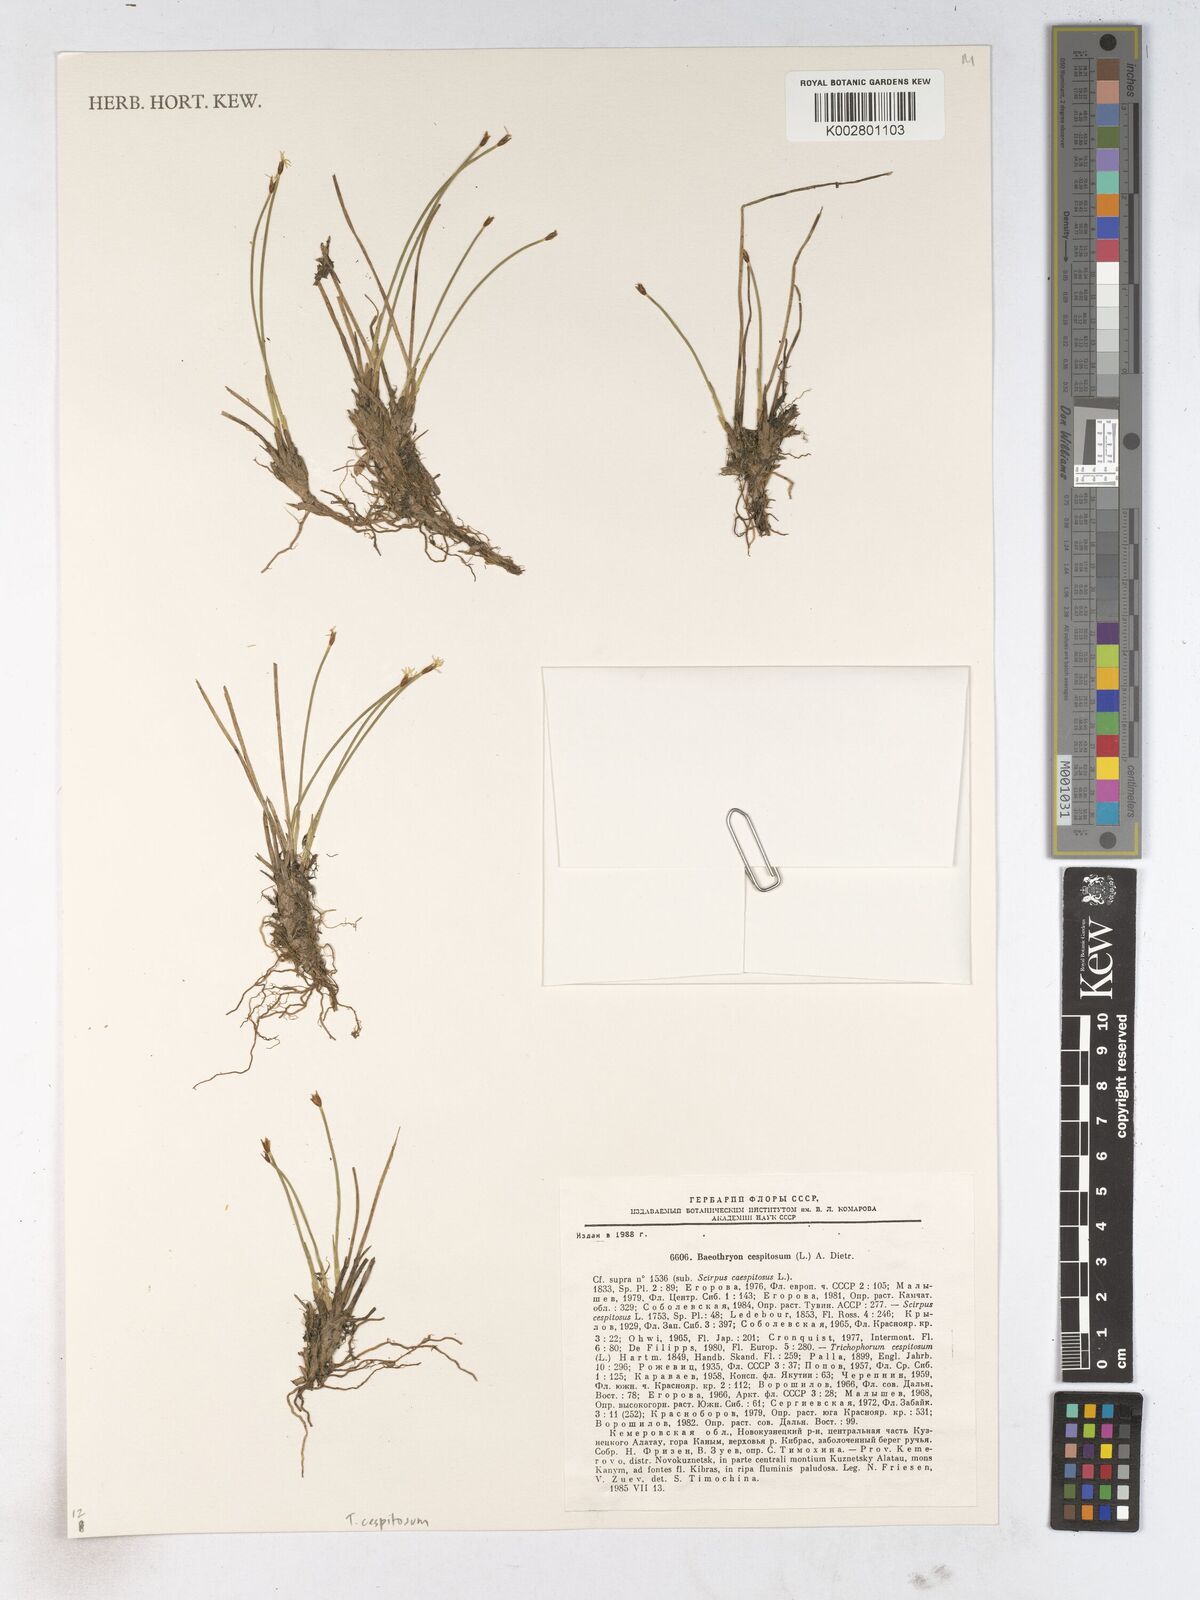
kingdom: Plantae
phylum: Tracheophyta
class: Liliopsida
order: Poales
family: Cyperaceae
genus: Trichophorum
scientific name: Trichophorum cespitosum
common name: Cespitose bulrush
